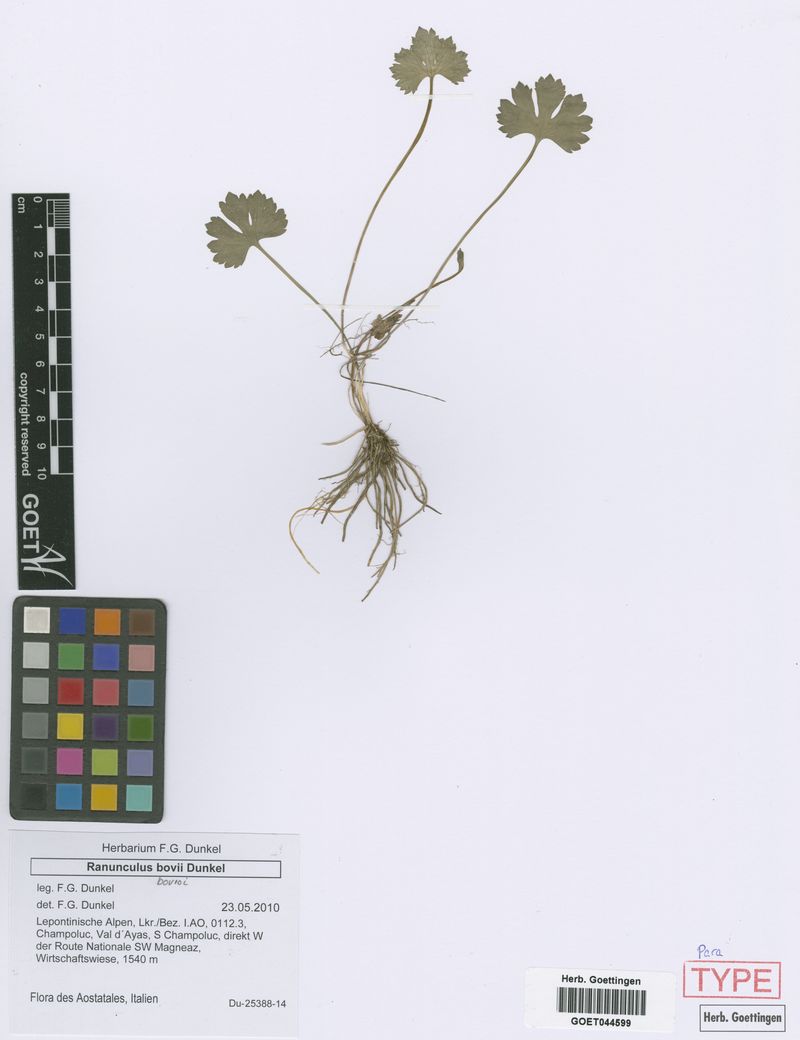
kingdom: Plantae
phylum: Tracheophyta
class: Magnoliopsida
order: Ranunculales
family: Ranunculaceae
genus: Ranunculus
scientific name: Ranunculus bovioi
